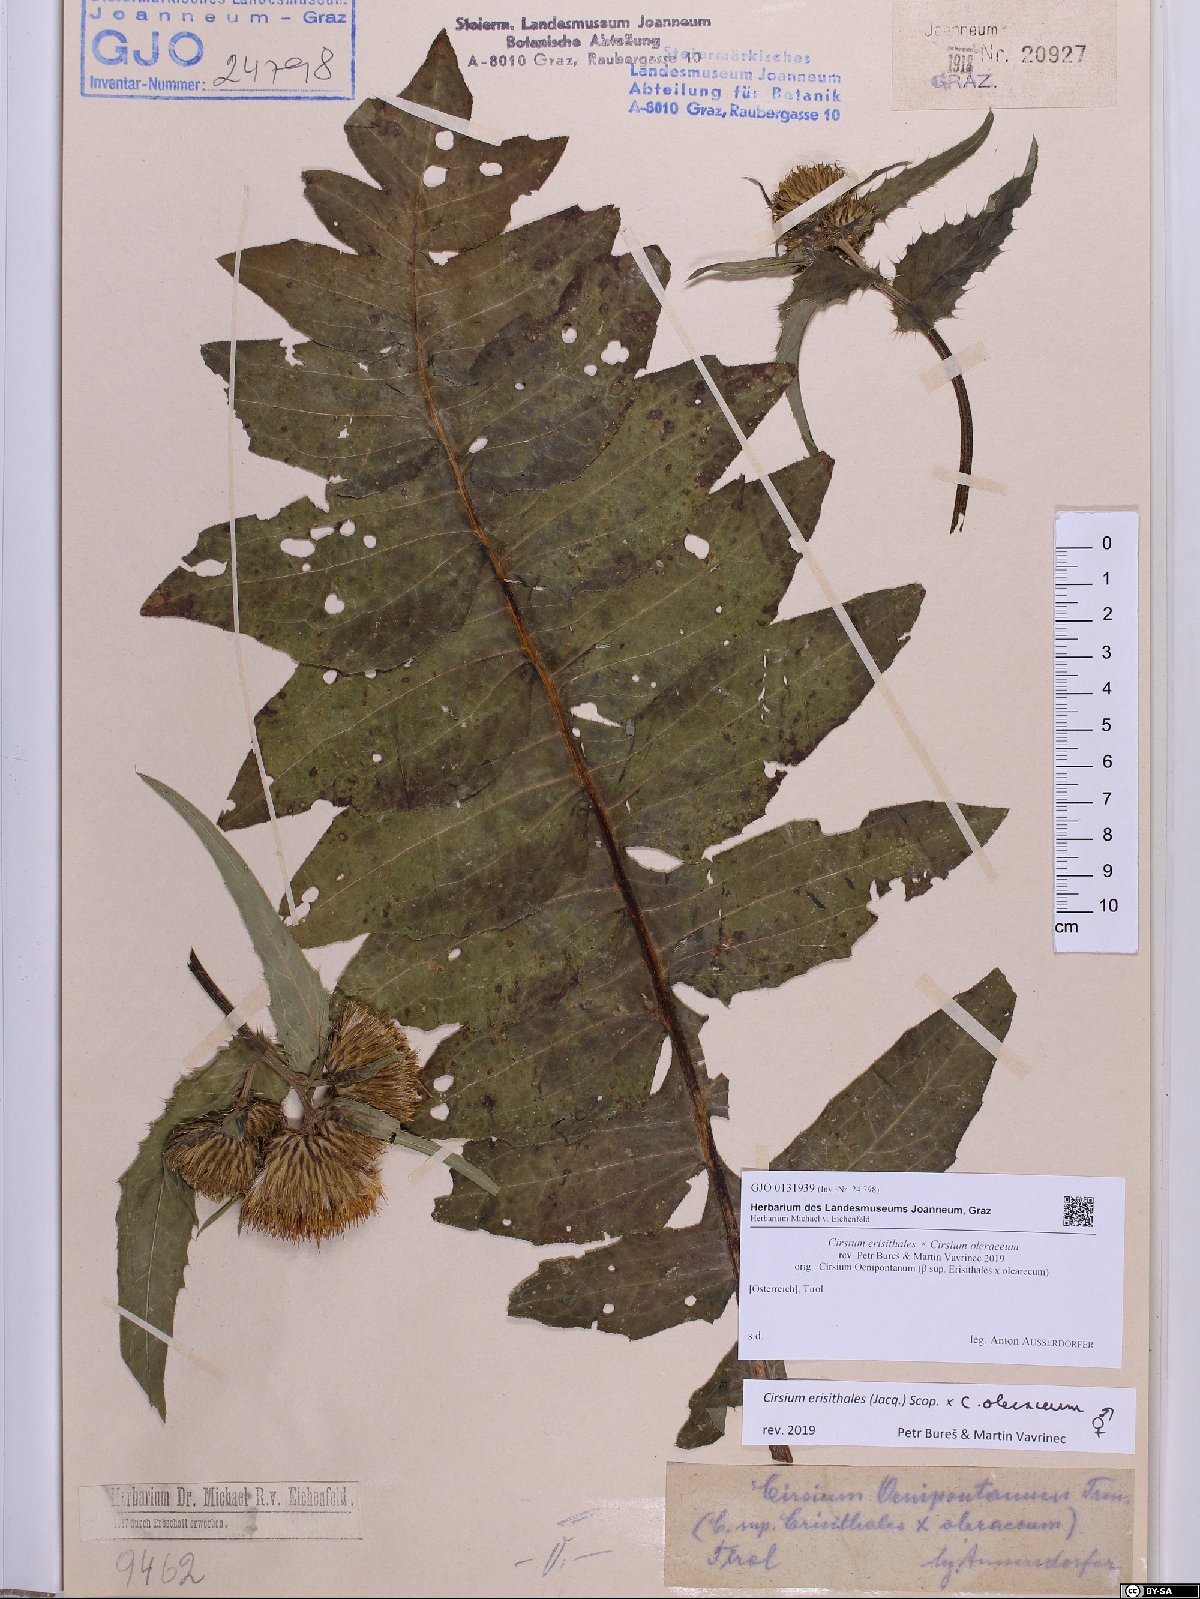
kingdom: Plantae
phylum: Tracheophyta
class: Magnoliopsida
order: Asterales
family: Asteraceae
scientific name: Asteraceae
